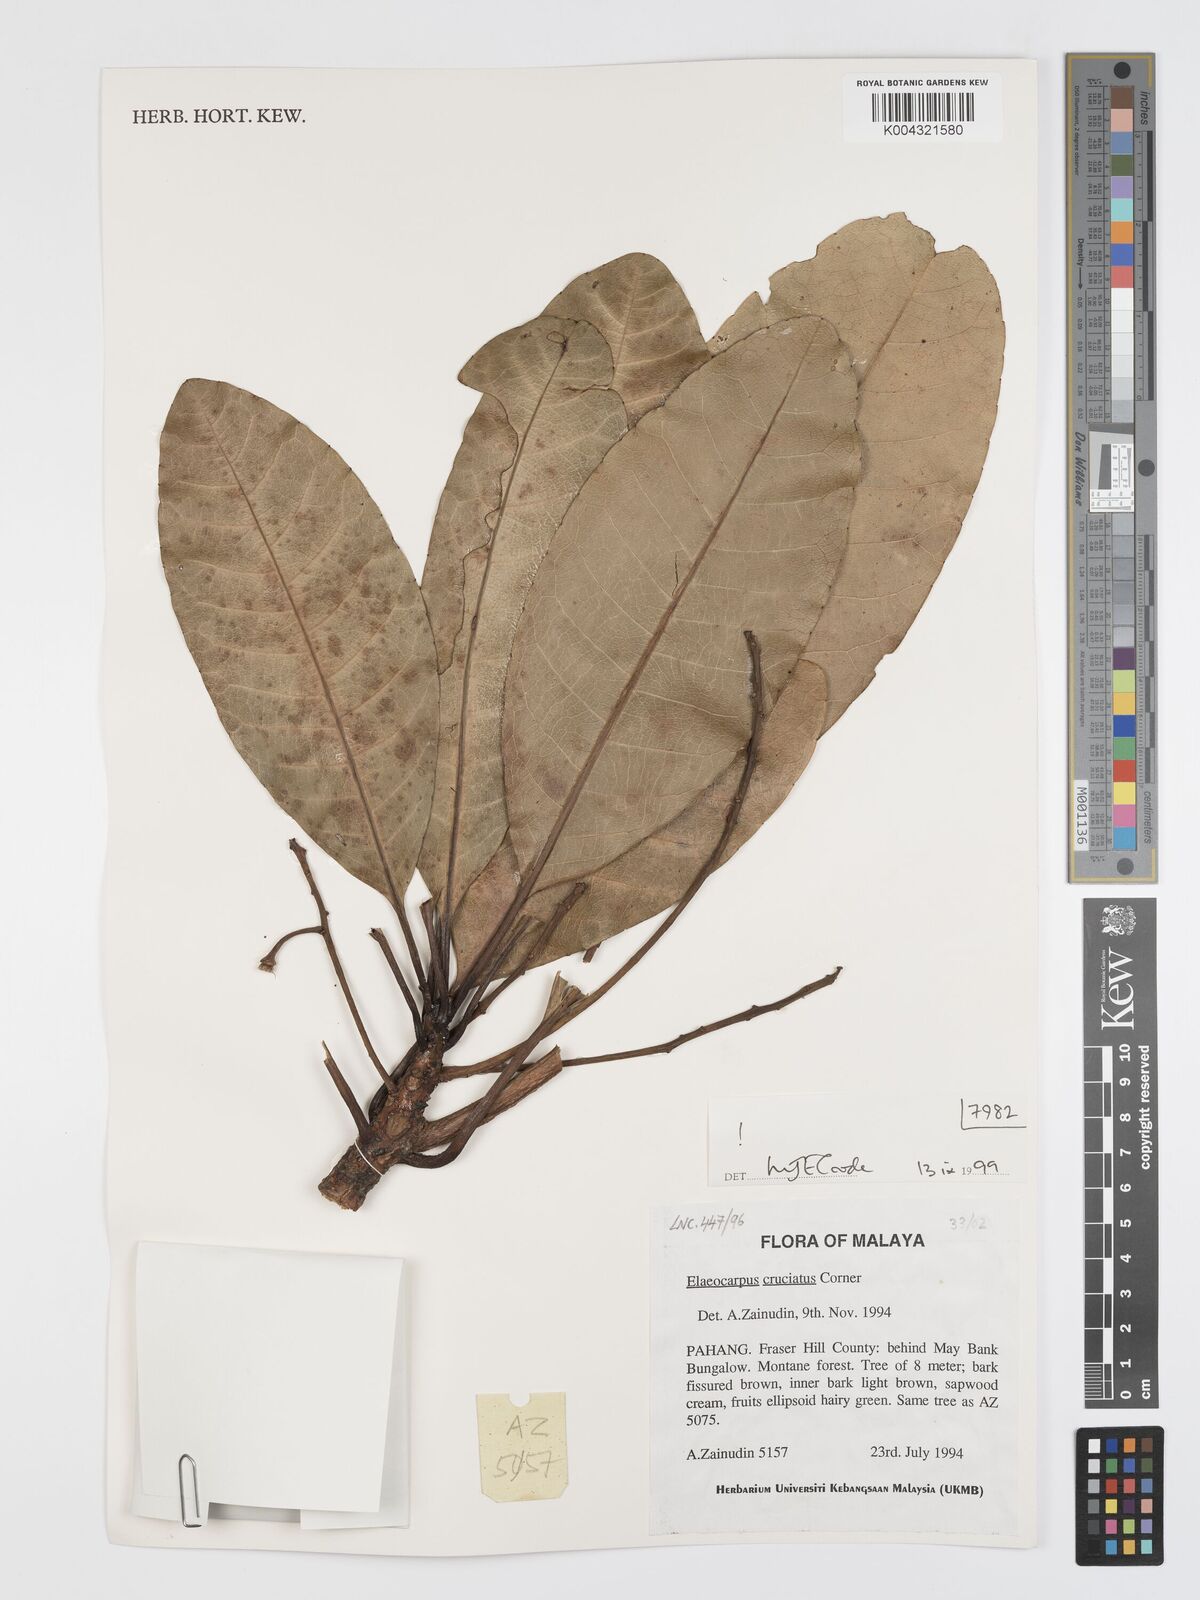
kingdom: Plantae
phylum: Tracheophyta
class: Magnoliopsida
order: Oxalidales
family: Elaeocarpaceae
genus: Elaeocarpus
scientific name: Elaeocarpus cruciatus
